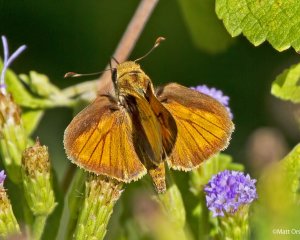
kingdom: Animalia
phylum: Arthropoda
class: Insecta
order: Lepidoptera
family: Hesperiidae
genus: Polites
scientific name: Polites vibex
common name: Whirlabout
